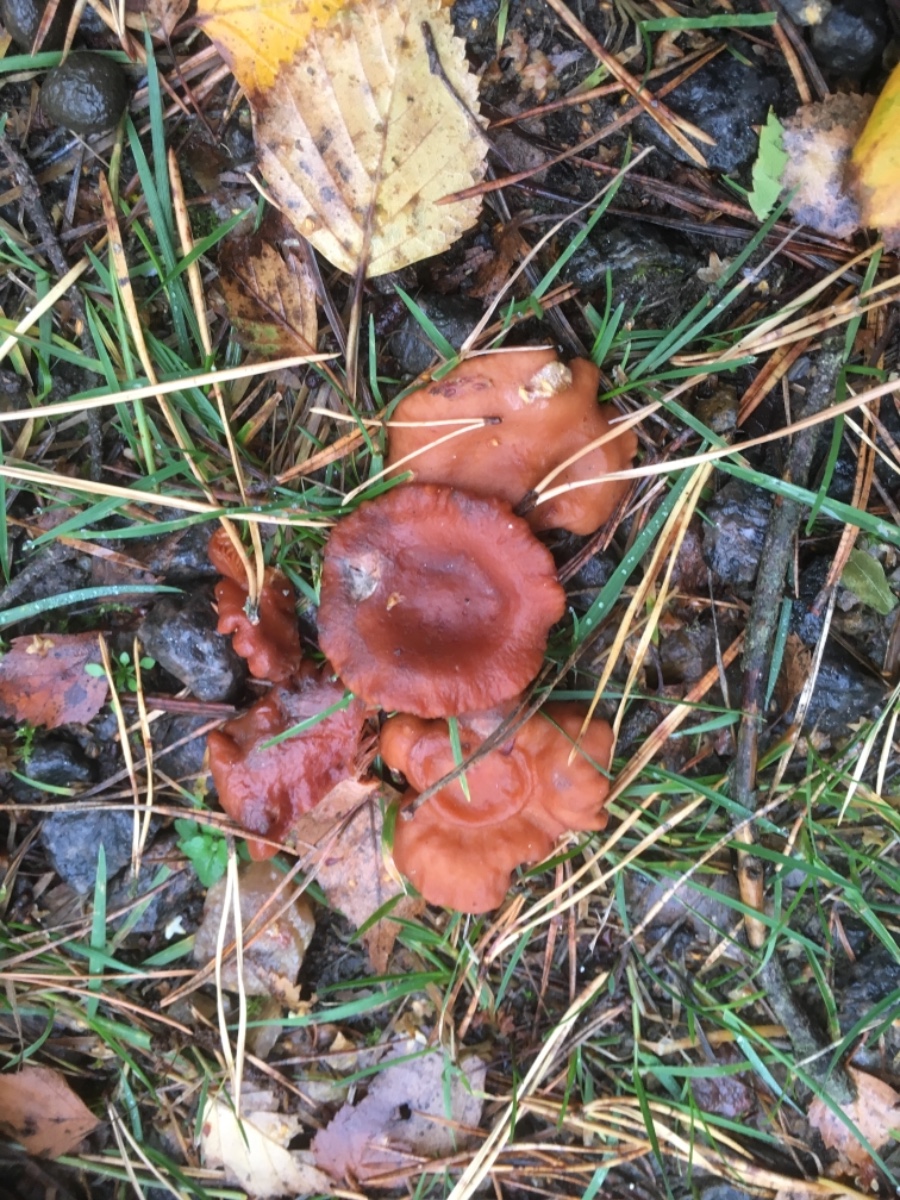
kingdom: Fungi
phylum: Basidiomycota
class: Agaricomycetes
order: Russulales
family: Russulaceae
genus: Lactarius
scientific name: Lactarius aurantiacus
